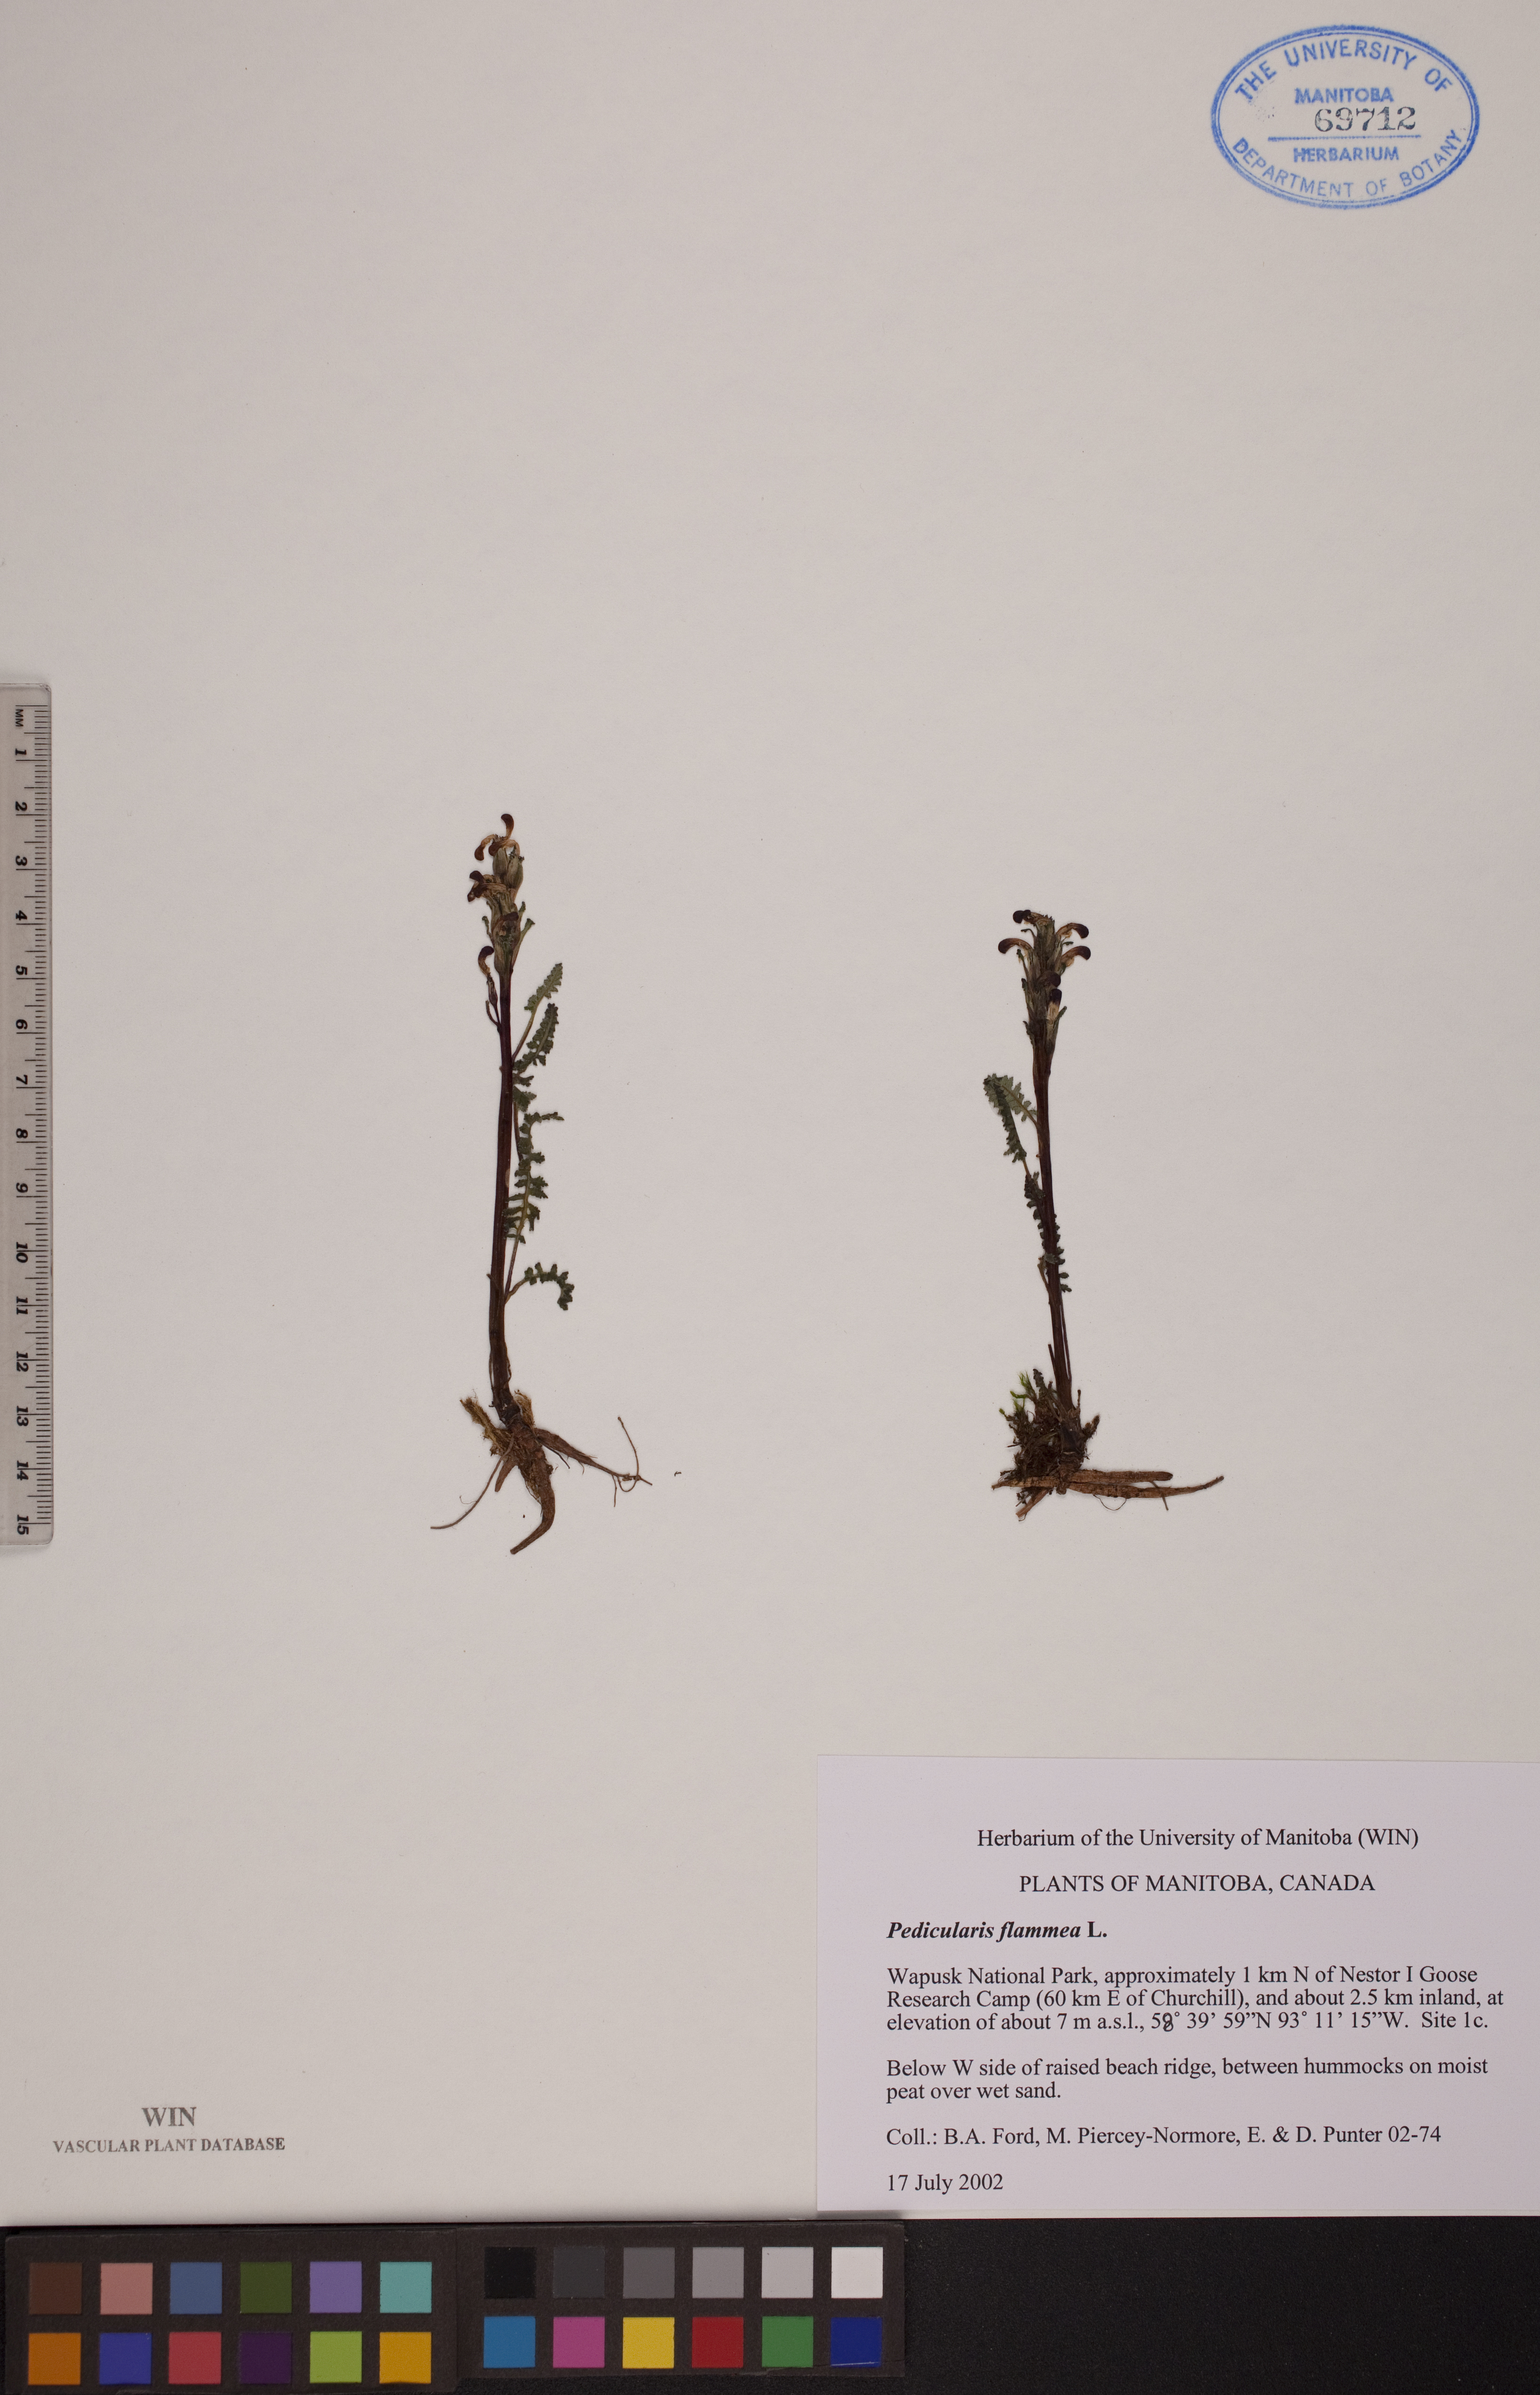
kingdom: Plantae
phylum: Tracheophyta
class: Magnoliopsida
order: Lamiales
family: Orobanchaceae
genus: Pedicularis
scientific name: Pedicularis flammea
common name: Flame-coloured lousewort
